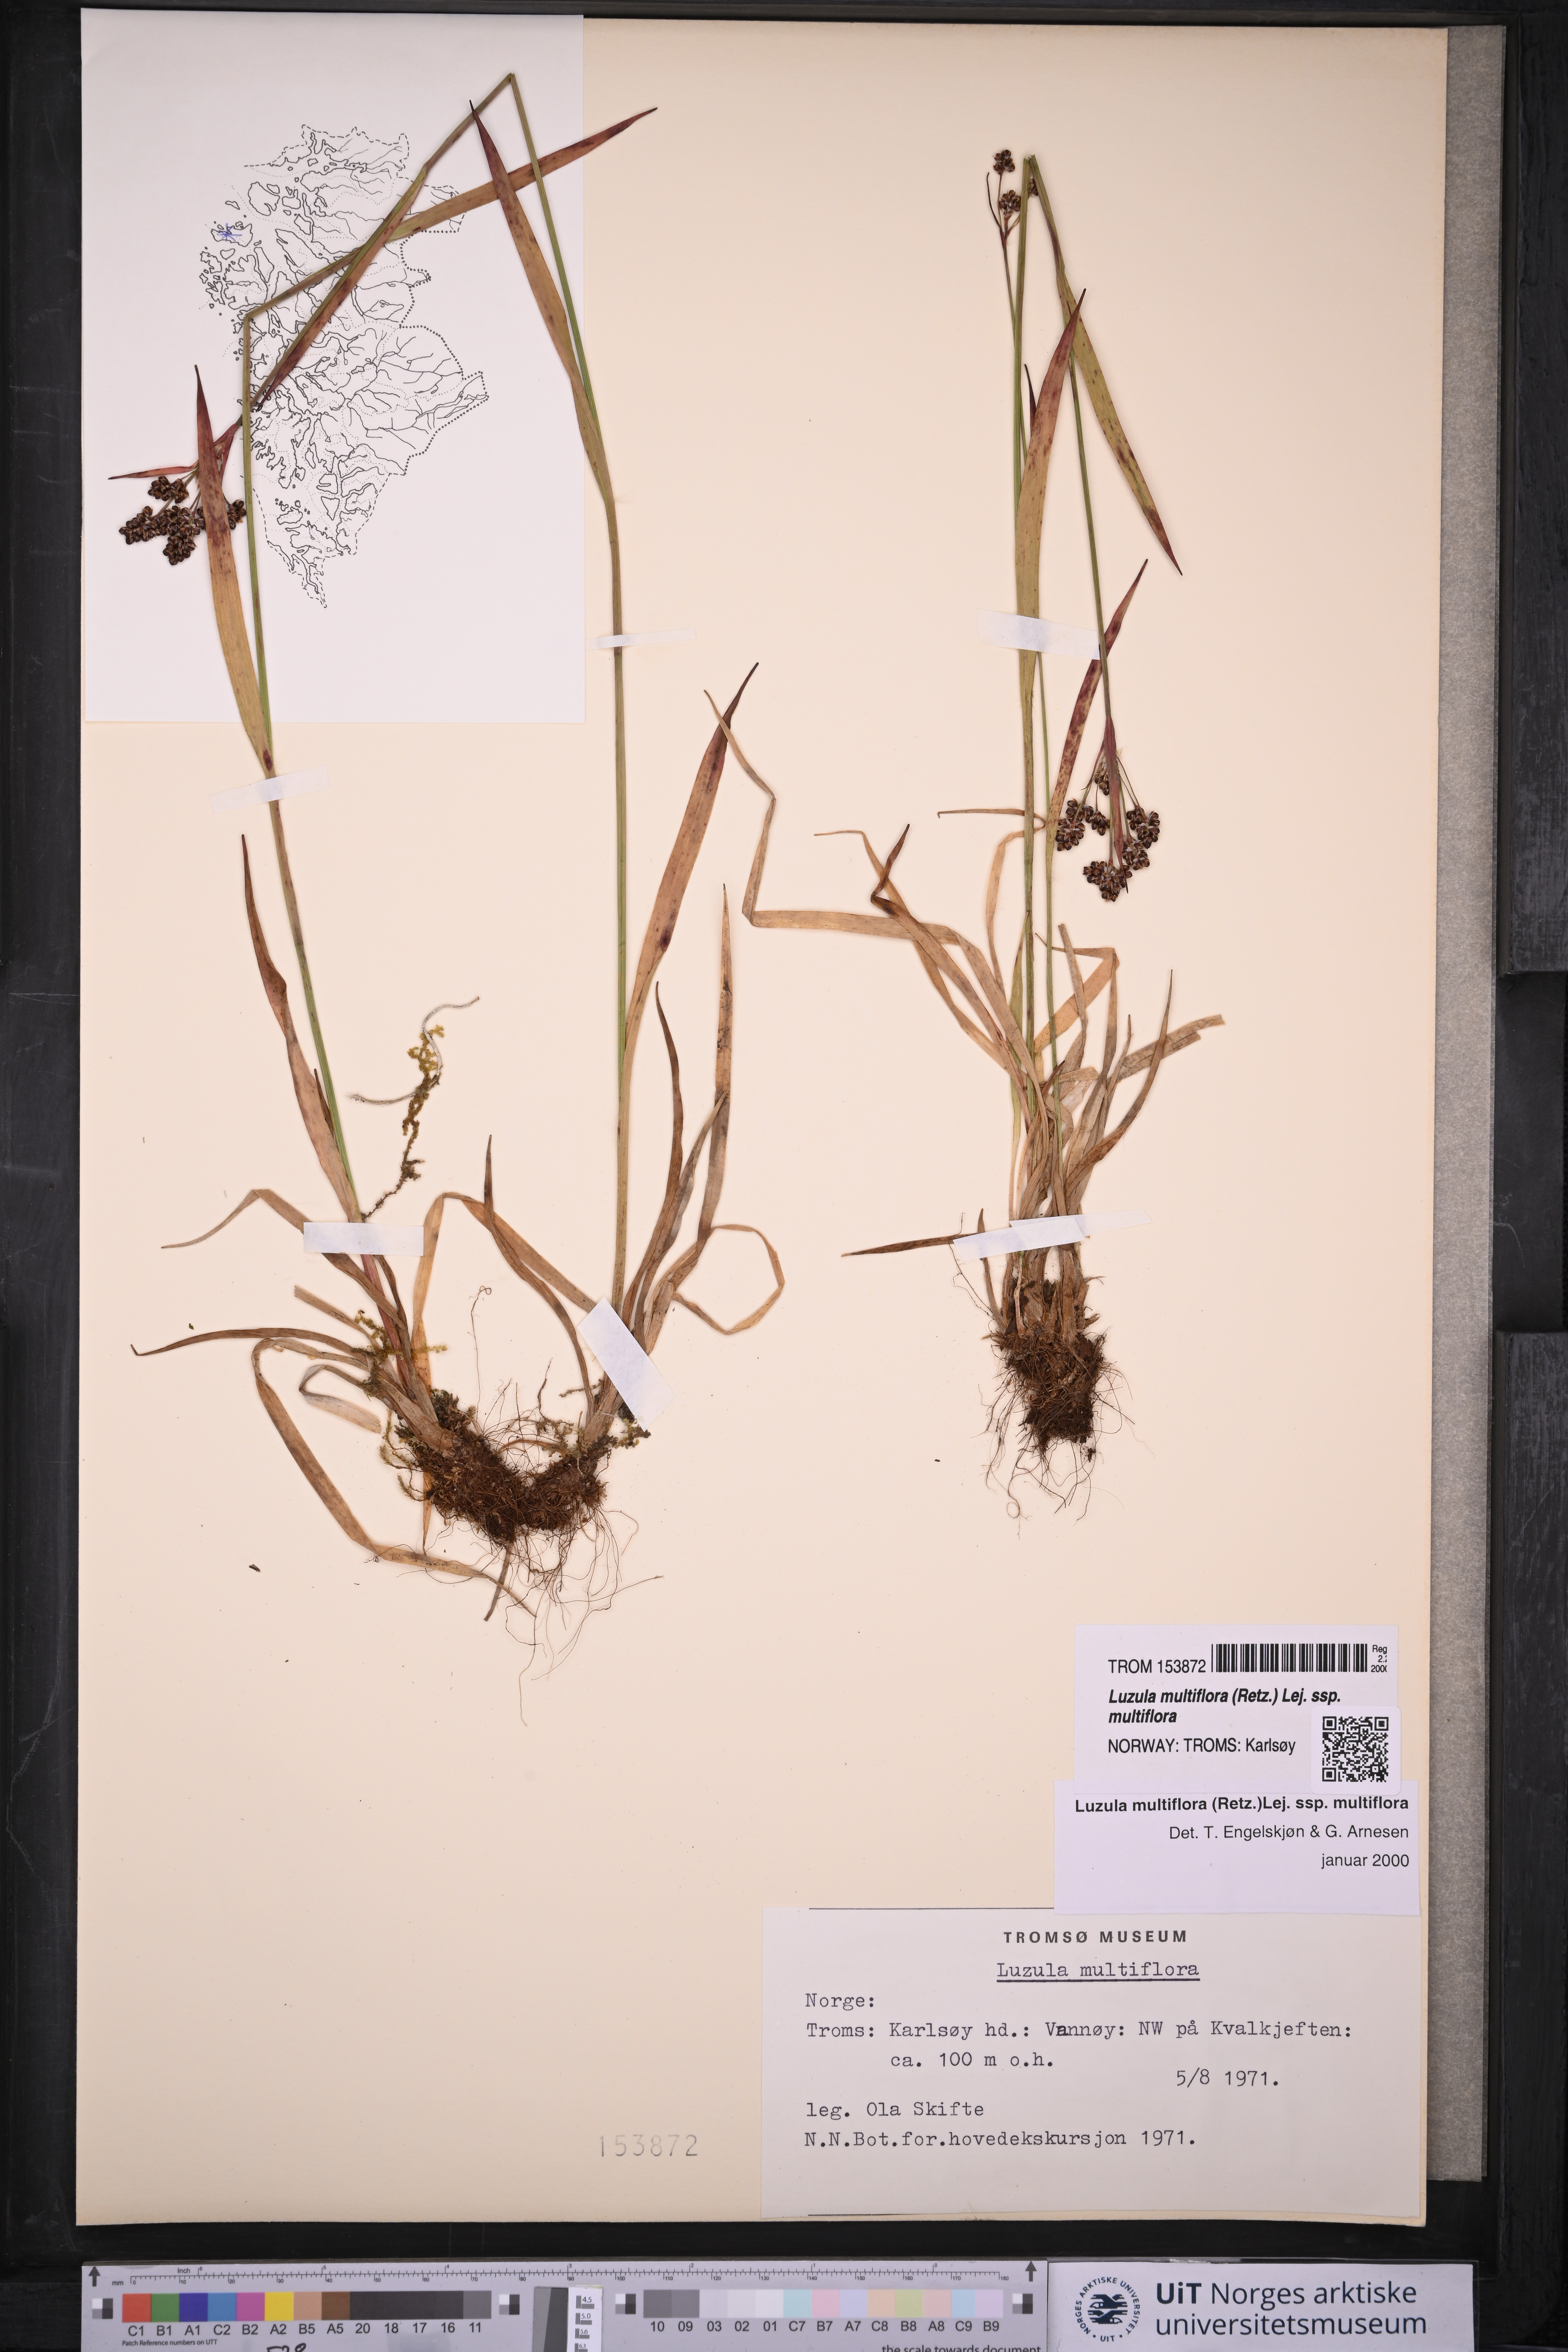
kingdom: Plantae
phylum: Tracheophyta
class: Liliopsida
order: Poales
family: Juncaceae
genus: Luzula
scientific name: Luzula multiflora
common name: Heath wood-rush
